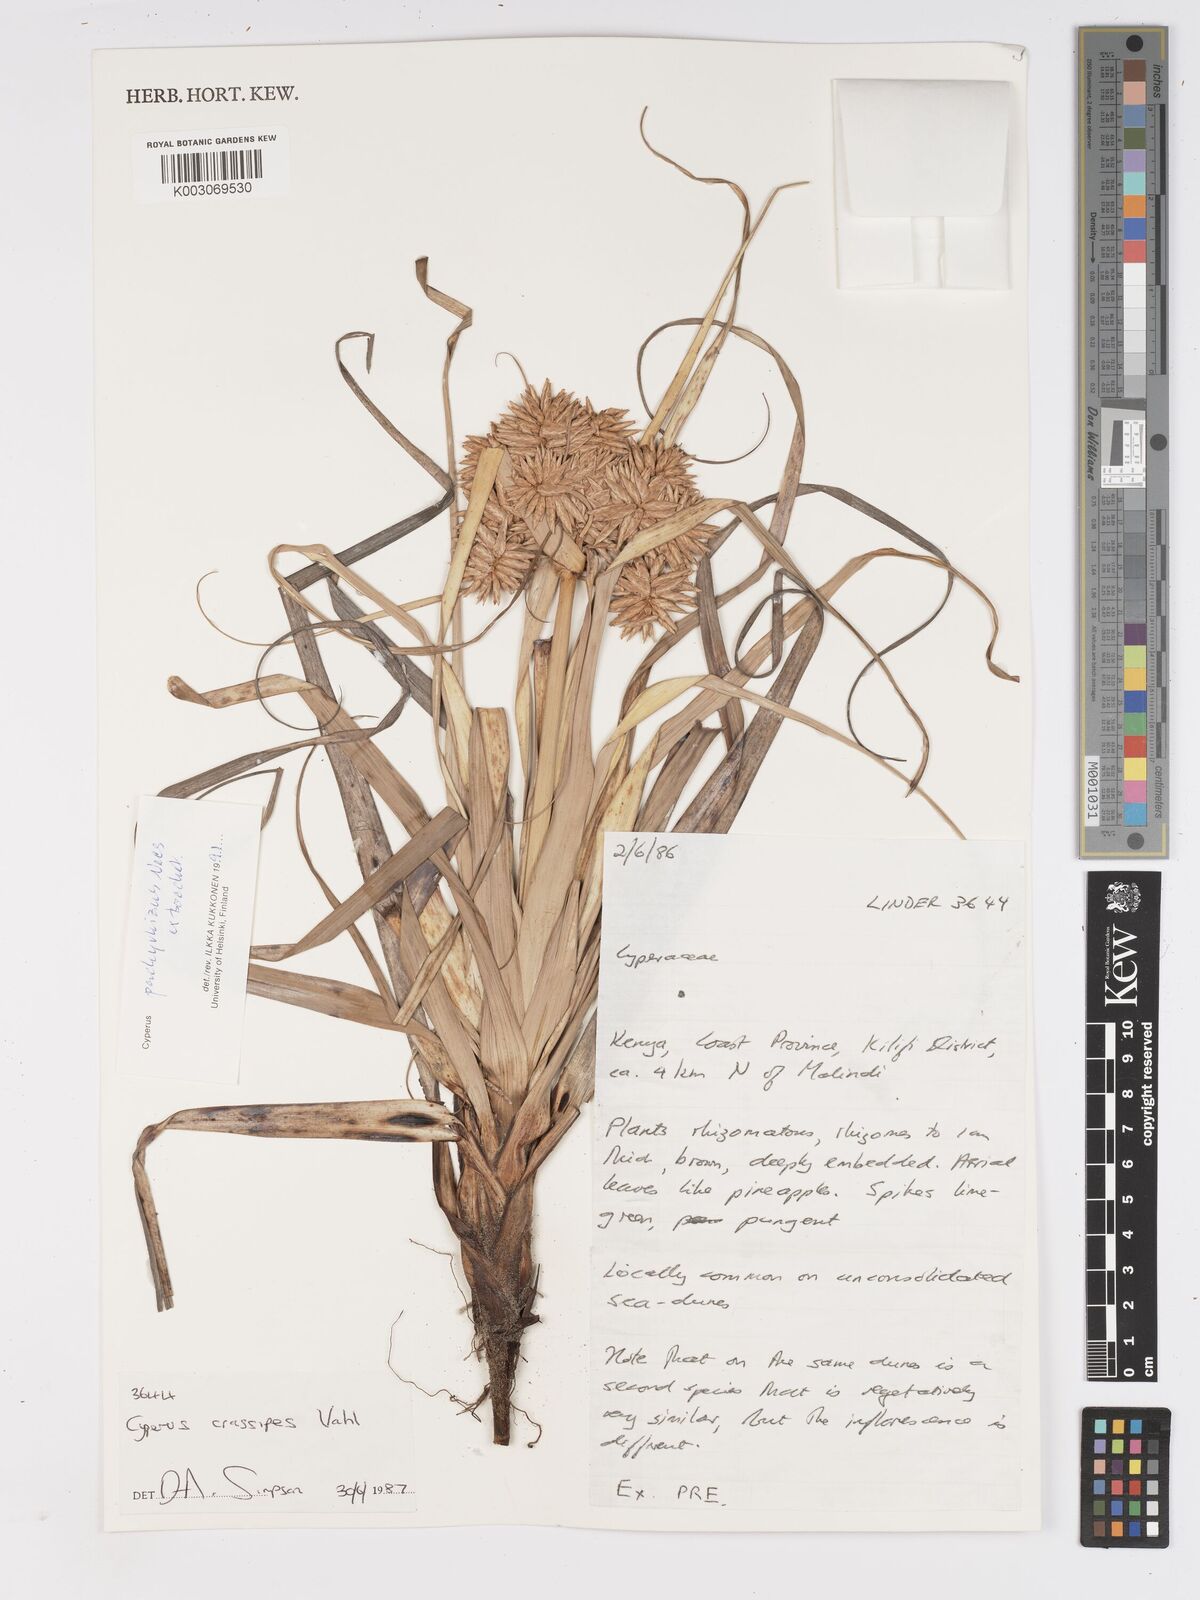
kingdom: Plantae
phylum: Tracheophyta
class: Liliopsida
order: Poales
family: Cyperaceae
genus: Cyperus
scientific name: Cyperus crassipes
